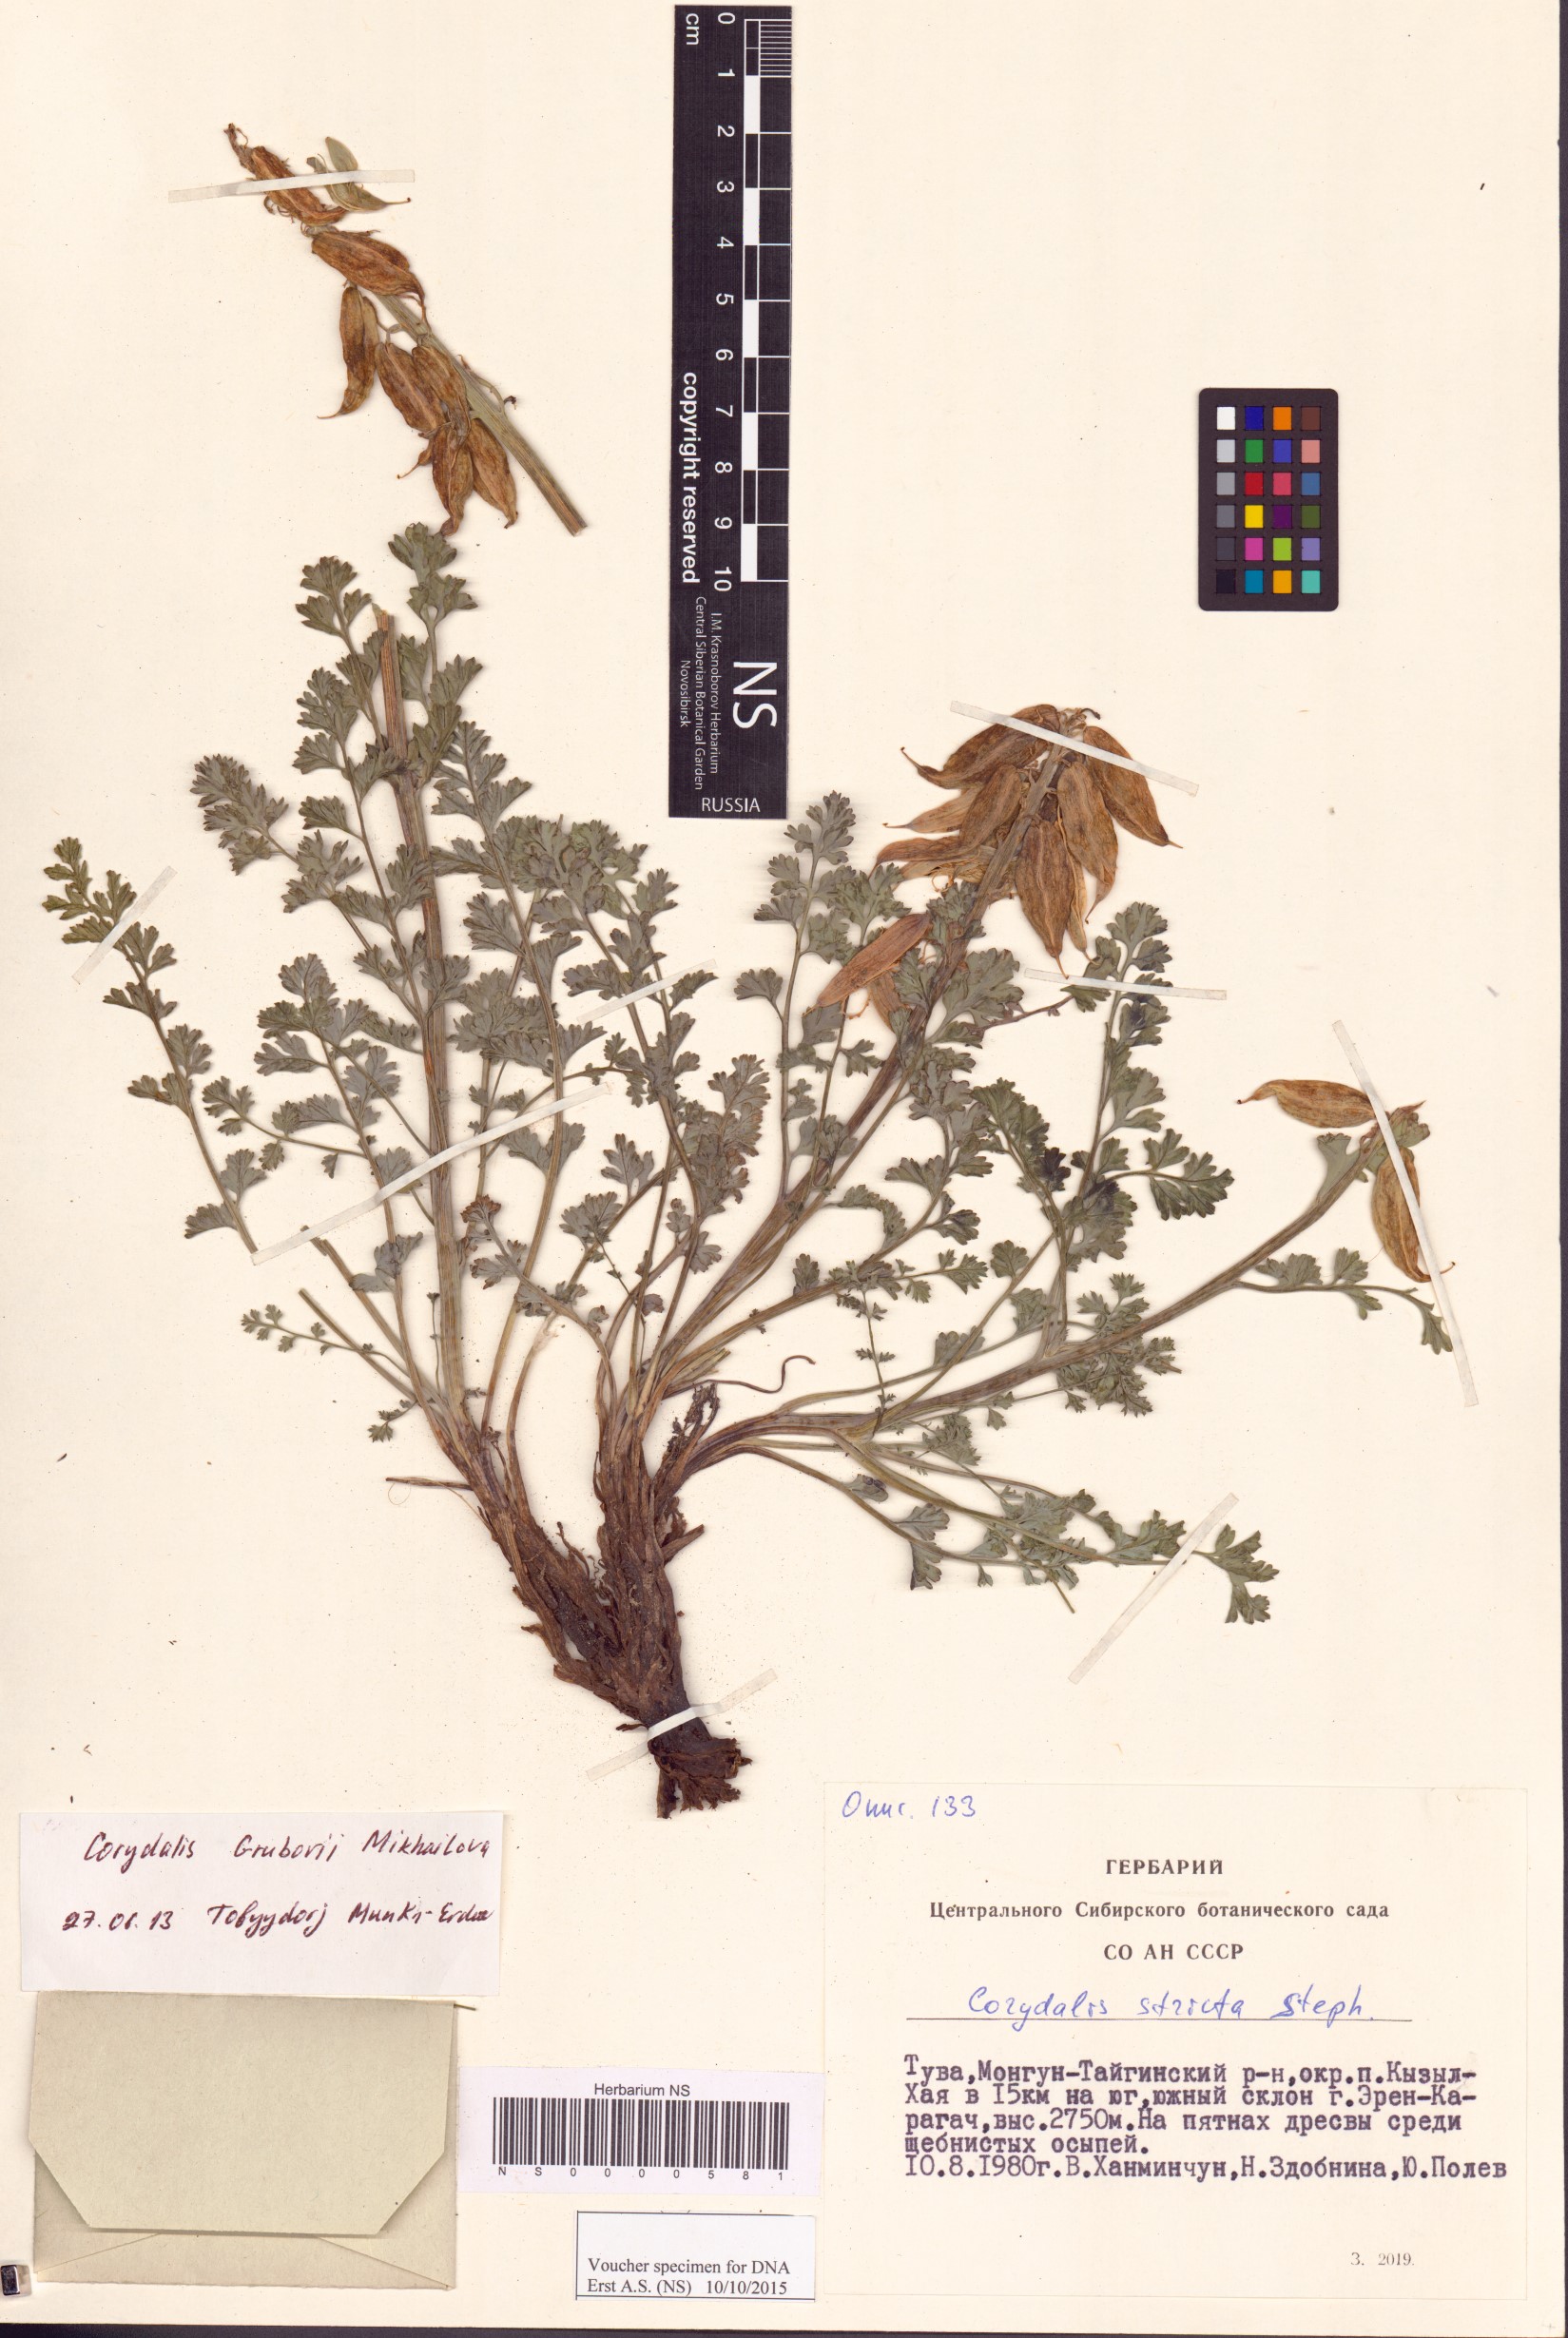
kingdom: Plantae
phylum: Tracheophyta
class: Magnoliopsida
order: Ranunculales
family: Papaveraceae
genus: Corydalis
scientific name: Corydalis stricta
